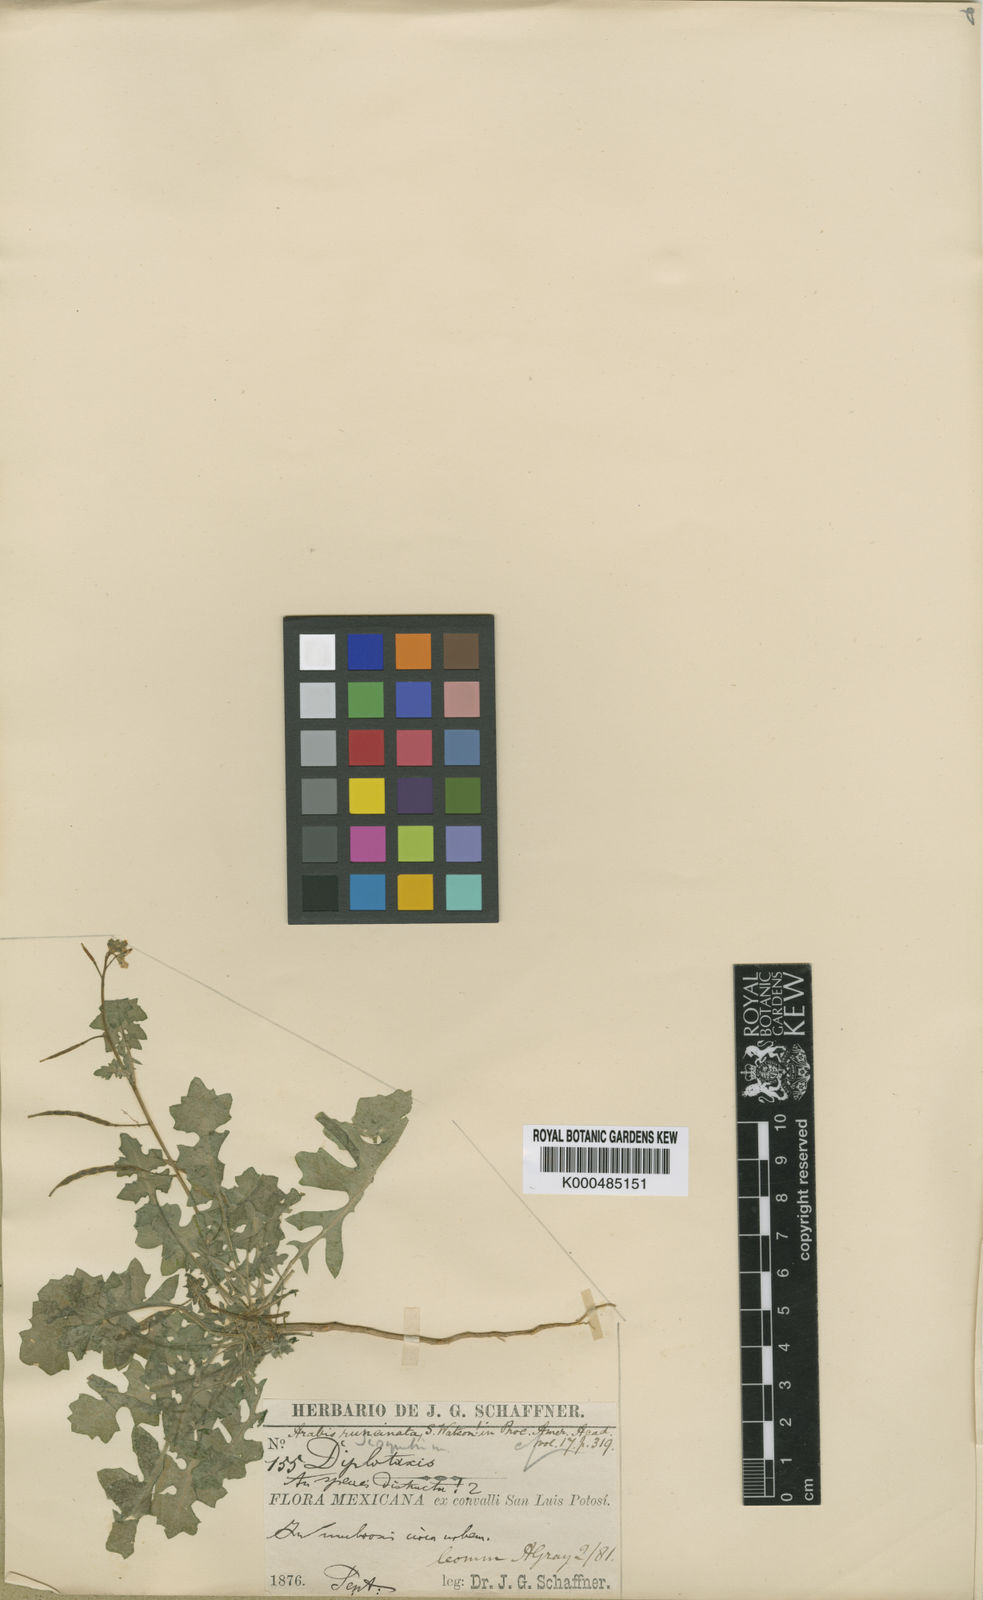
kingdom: Plantae
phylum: Tracheophyta
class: Magnoliopsida
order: Brassicales
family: Brassicaceae
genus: Phravenia
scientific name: Phravenia viereckii
